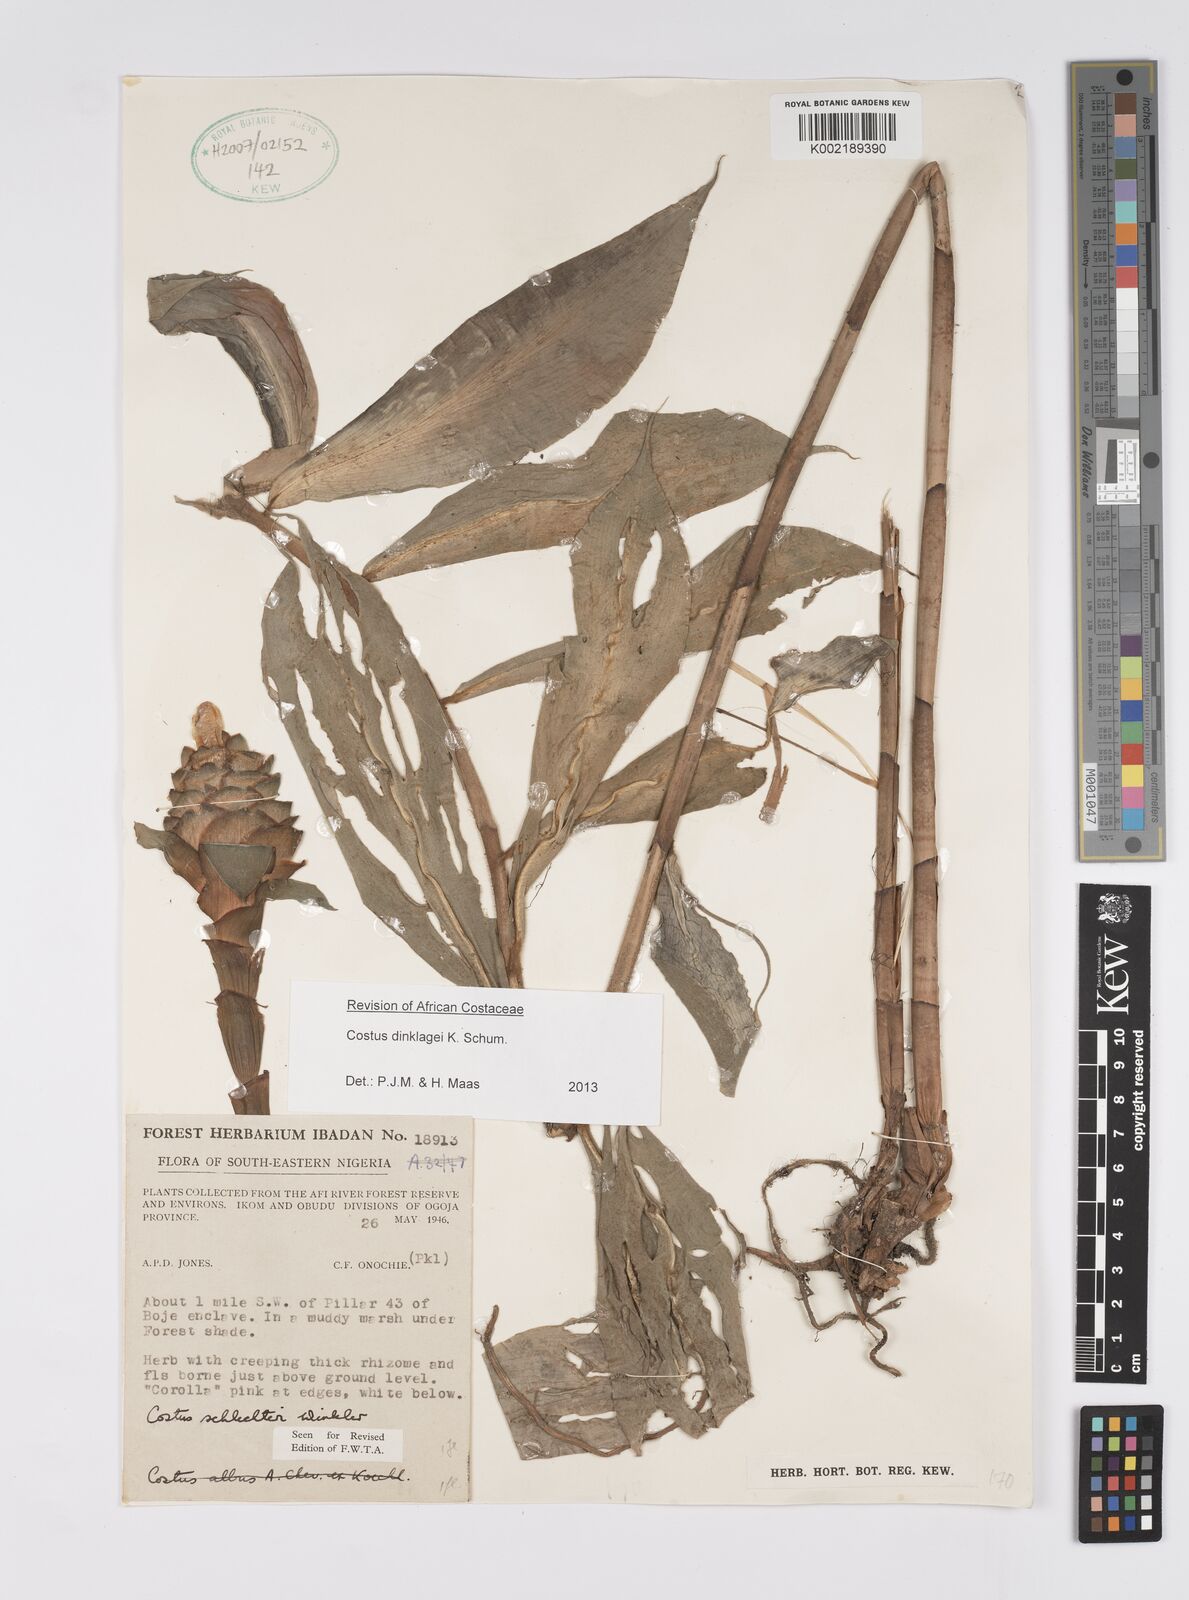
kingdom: Plantae
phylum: Tracheophyta
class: Liliopsida
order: Zingiberales
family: Costaceae
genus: Costus
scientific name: Costus dinklagei
